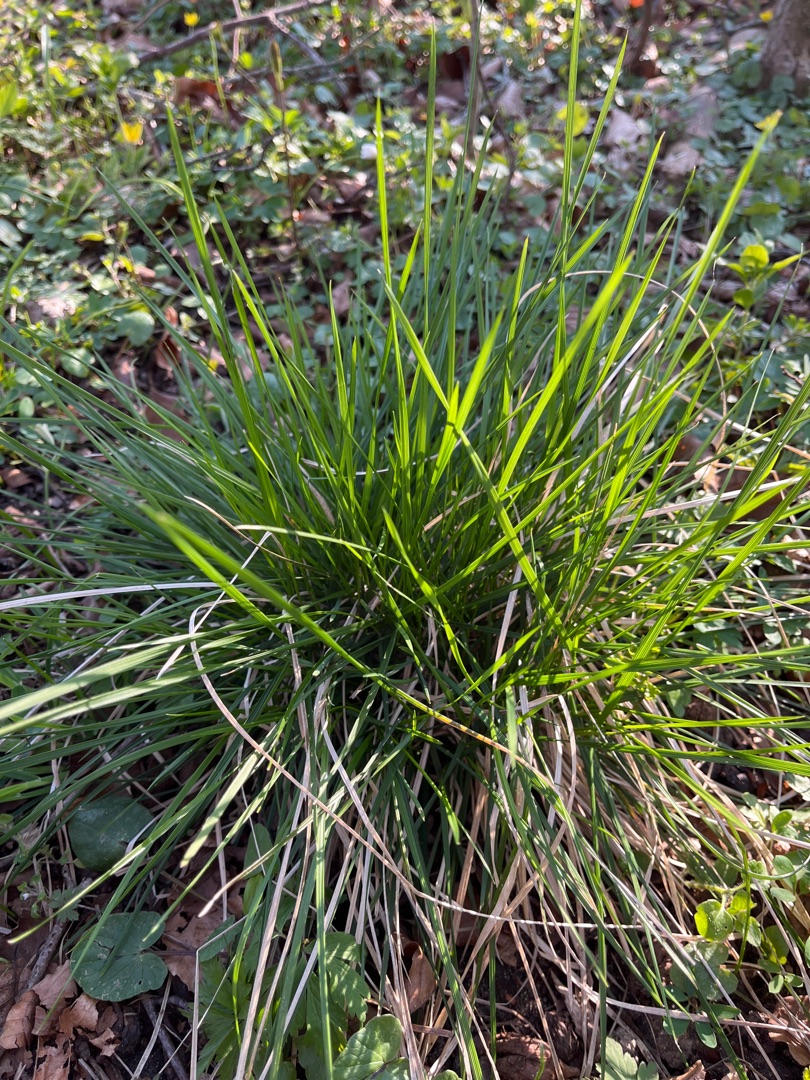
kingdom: Plantae
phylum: Tracheophyta
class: Liliopsida
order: Poales
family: Poaceae
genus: Deschampsia
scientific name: Deschampsia cespitosa
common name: Mose-bunke
